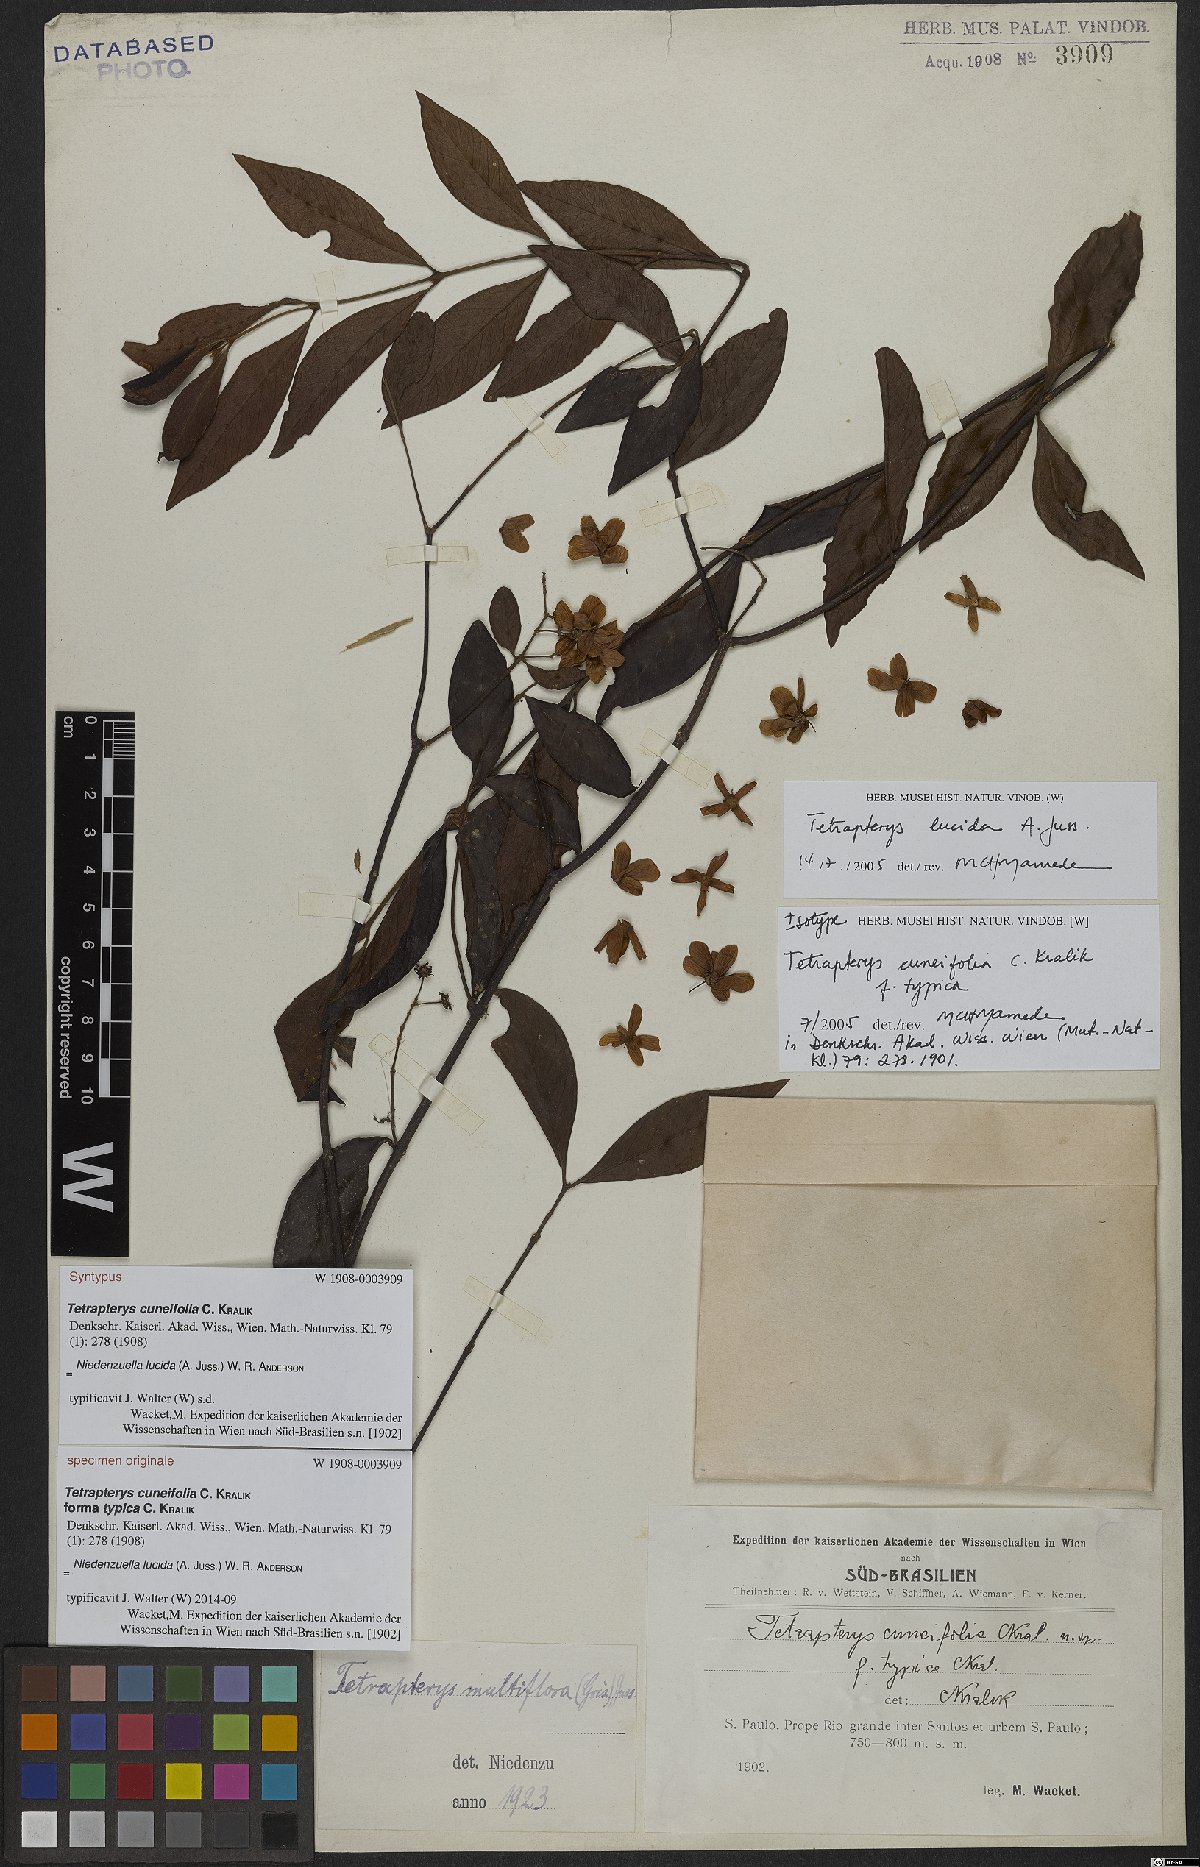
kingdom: Plantae
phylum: Tracheophyta
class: Magnoliopsida
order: Malpighiales
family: Malpighiaceae
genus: Niedenzuella
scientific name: Niedenzuella lucida
